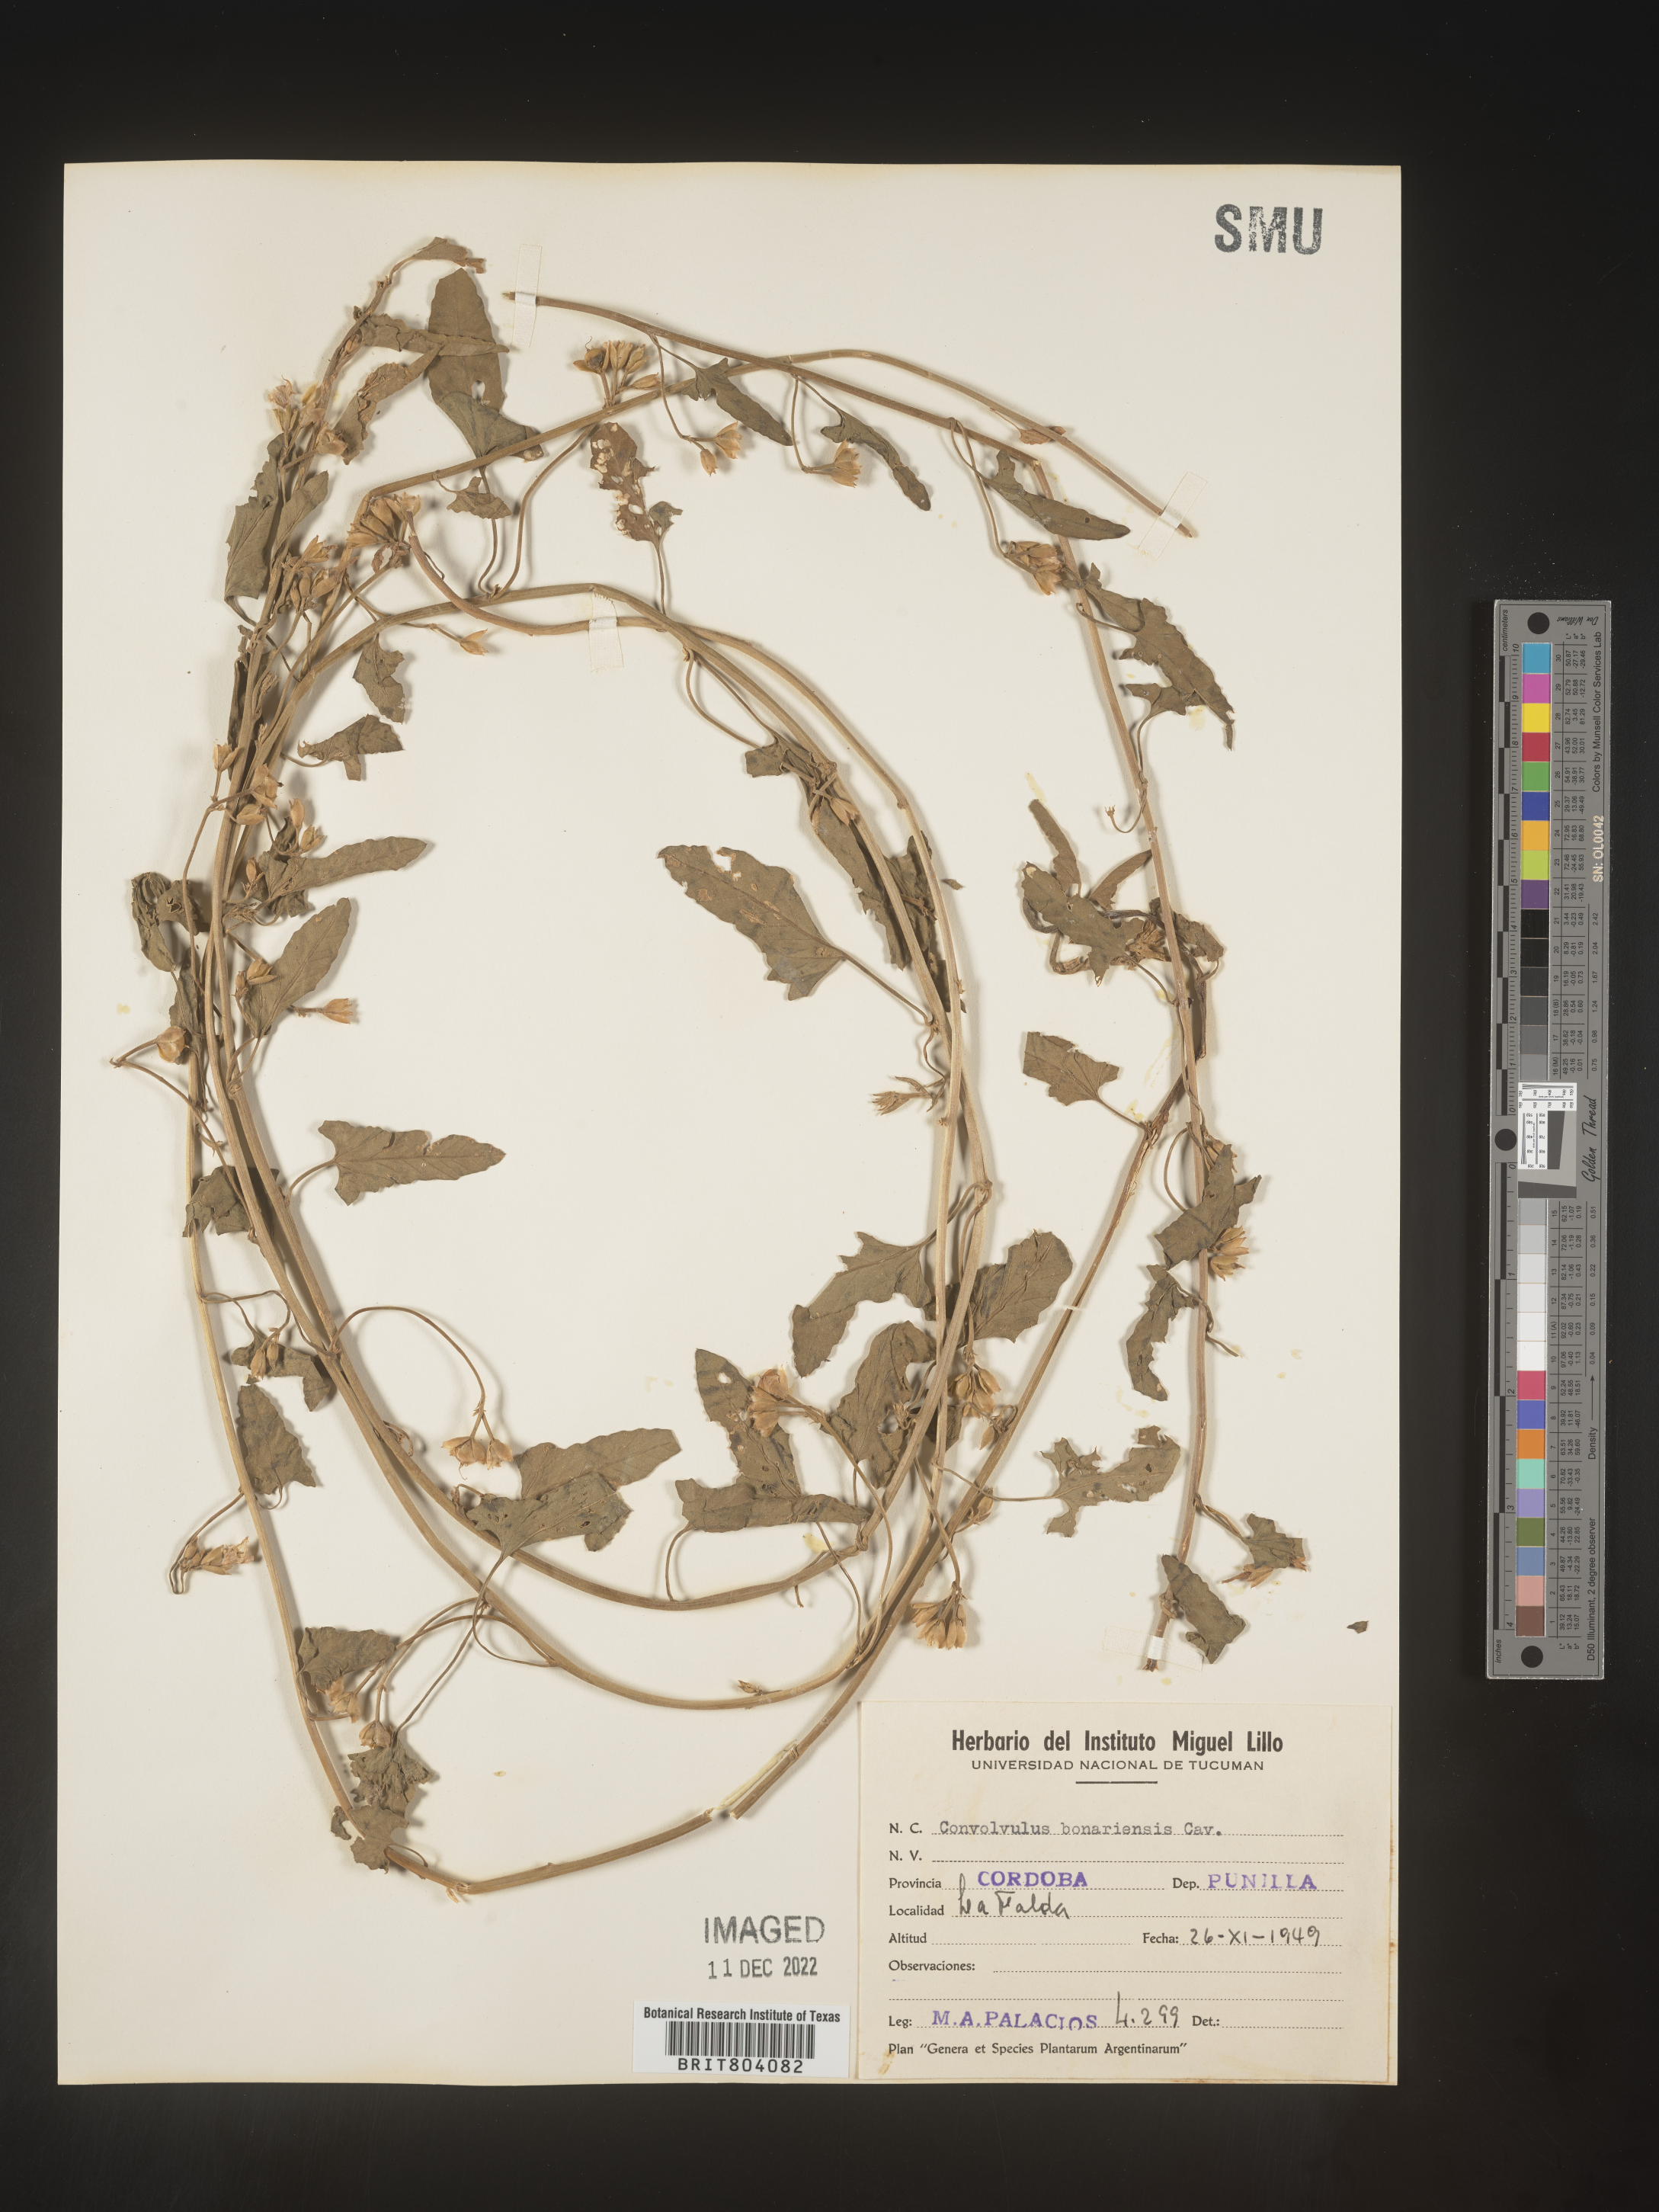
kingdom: Plantae
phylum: Tracheophyta
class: Magnoliopsida
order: Solanales
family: Convolvulaceae
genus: Convolvulus
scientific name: Convolvulus
